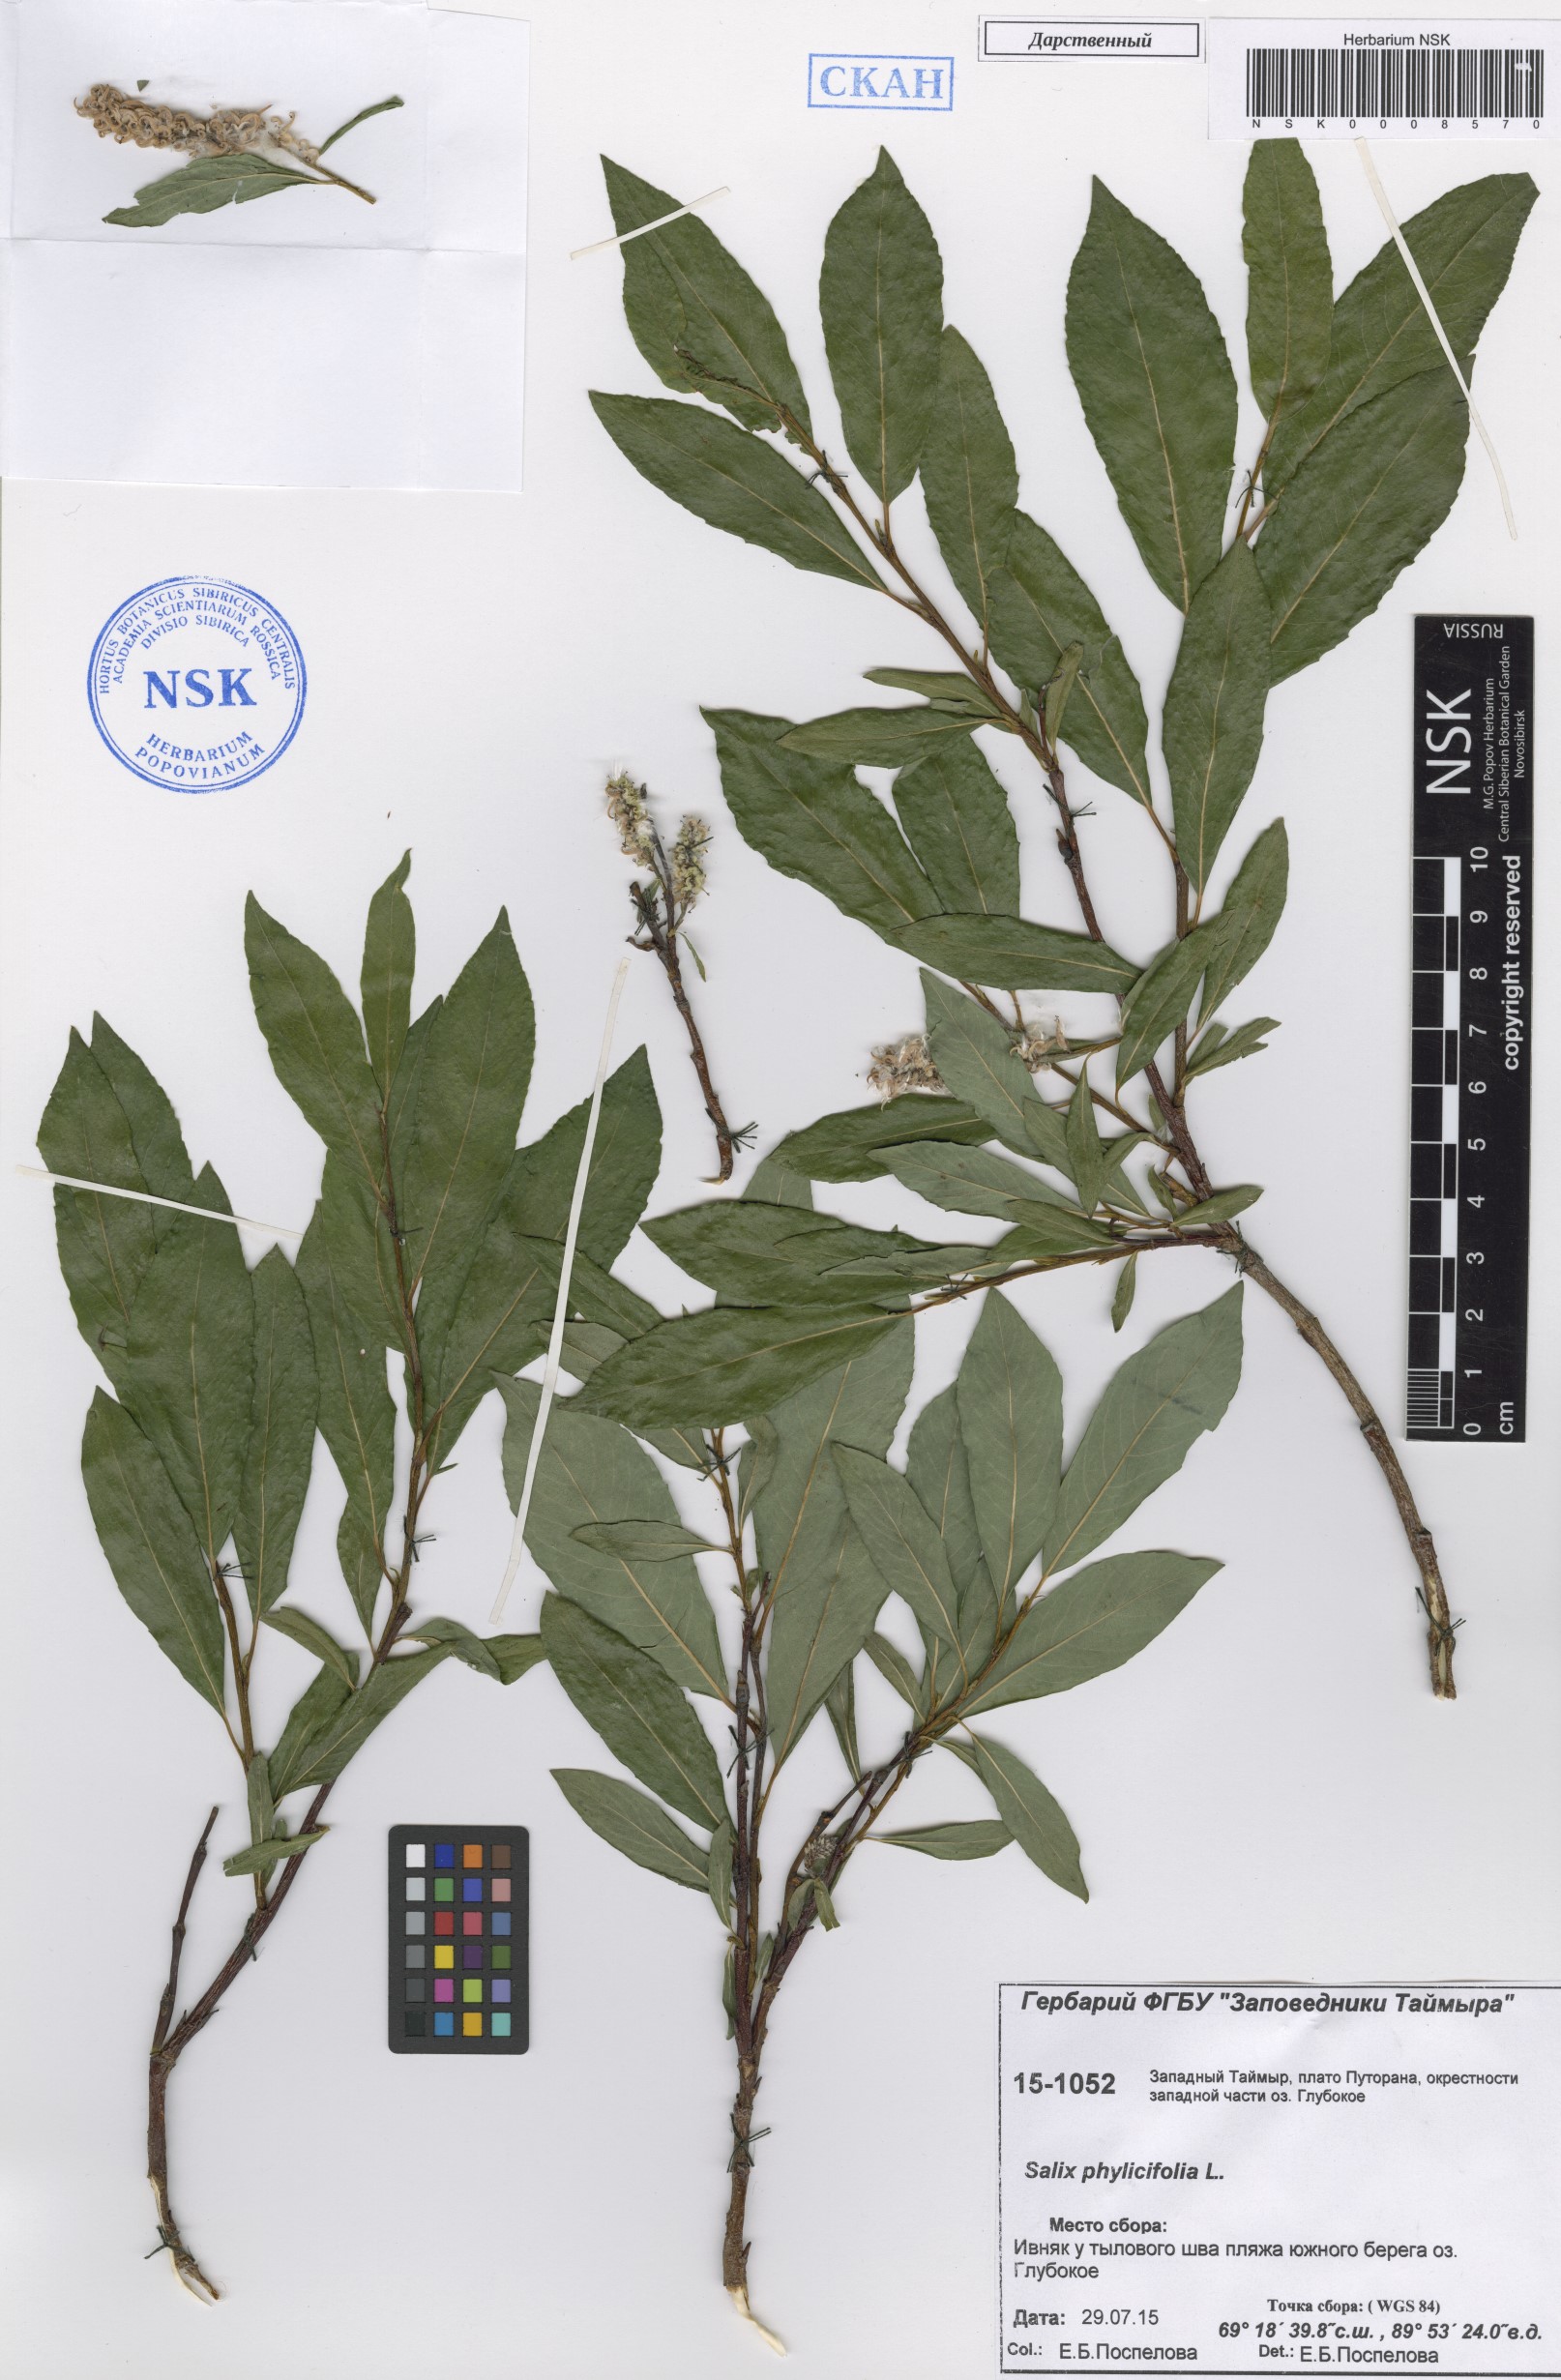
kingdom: Plantae
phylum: Tracheophyta
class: Magnoliopsida
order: Malpighiales
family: Salicaceae
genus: Salix
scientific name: Salix phylicifolia
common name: Tea-leaved willow
